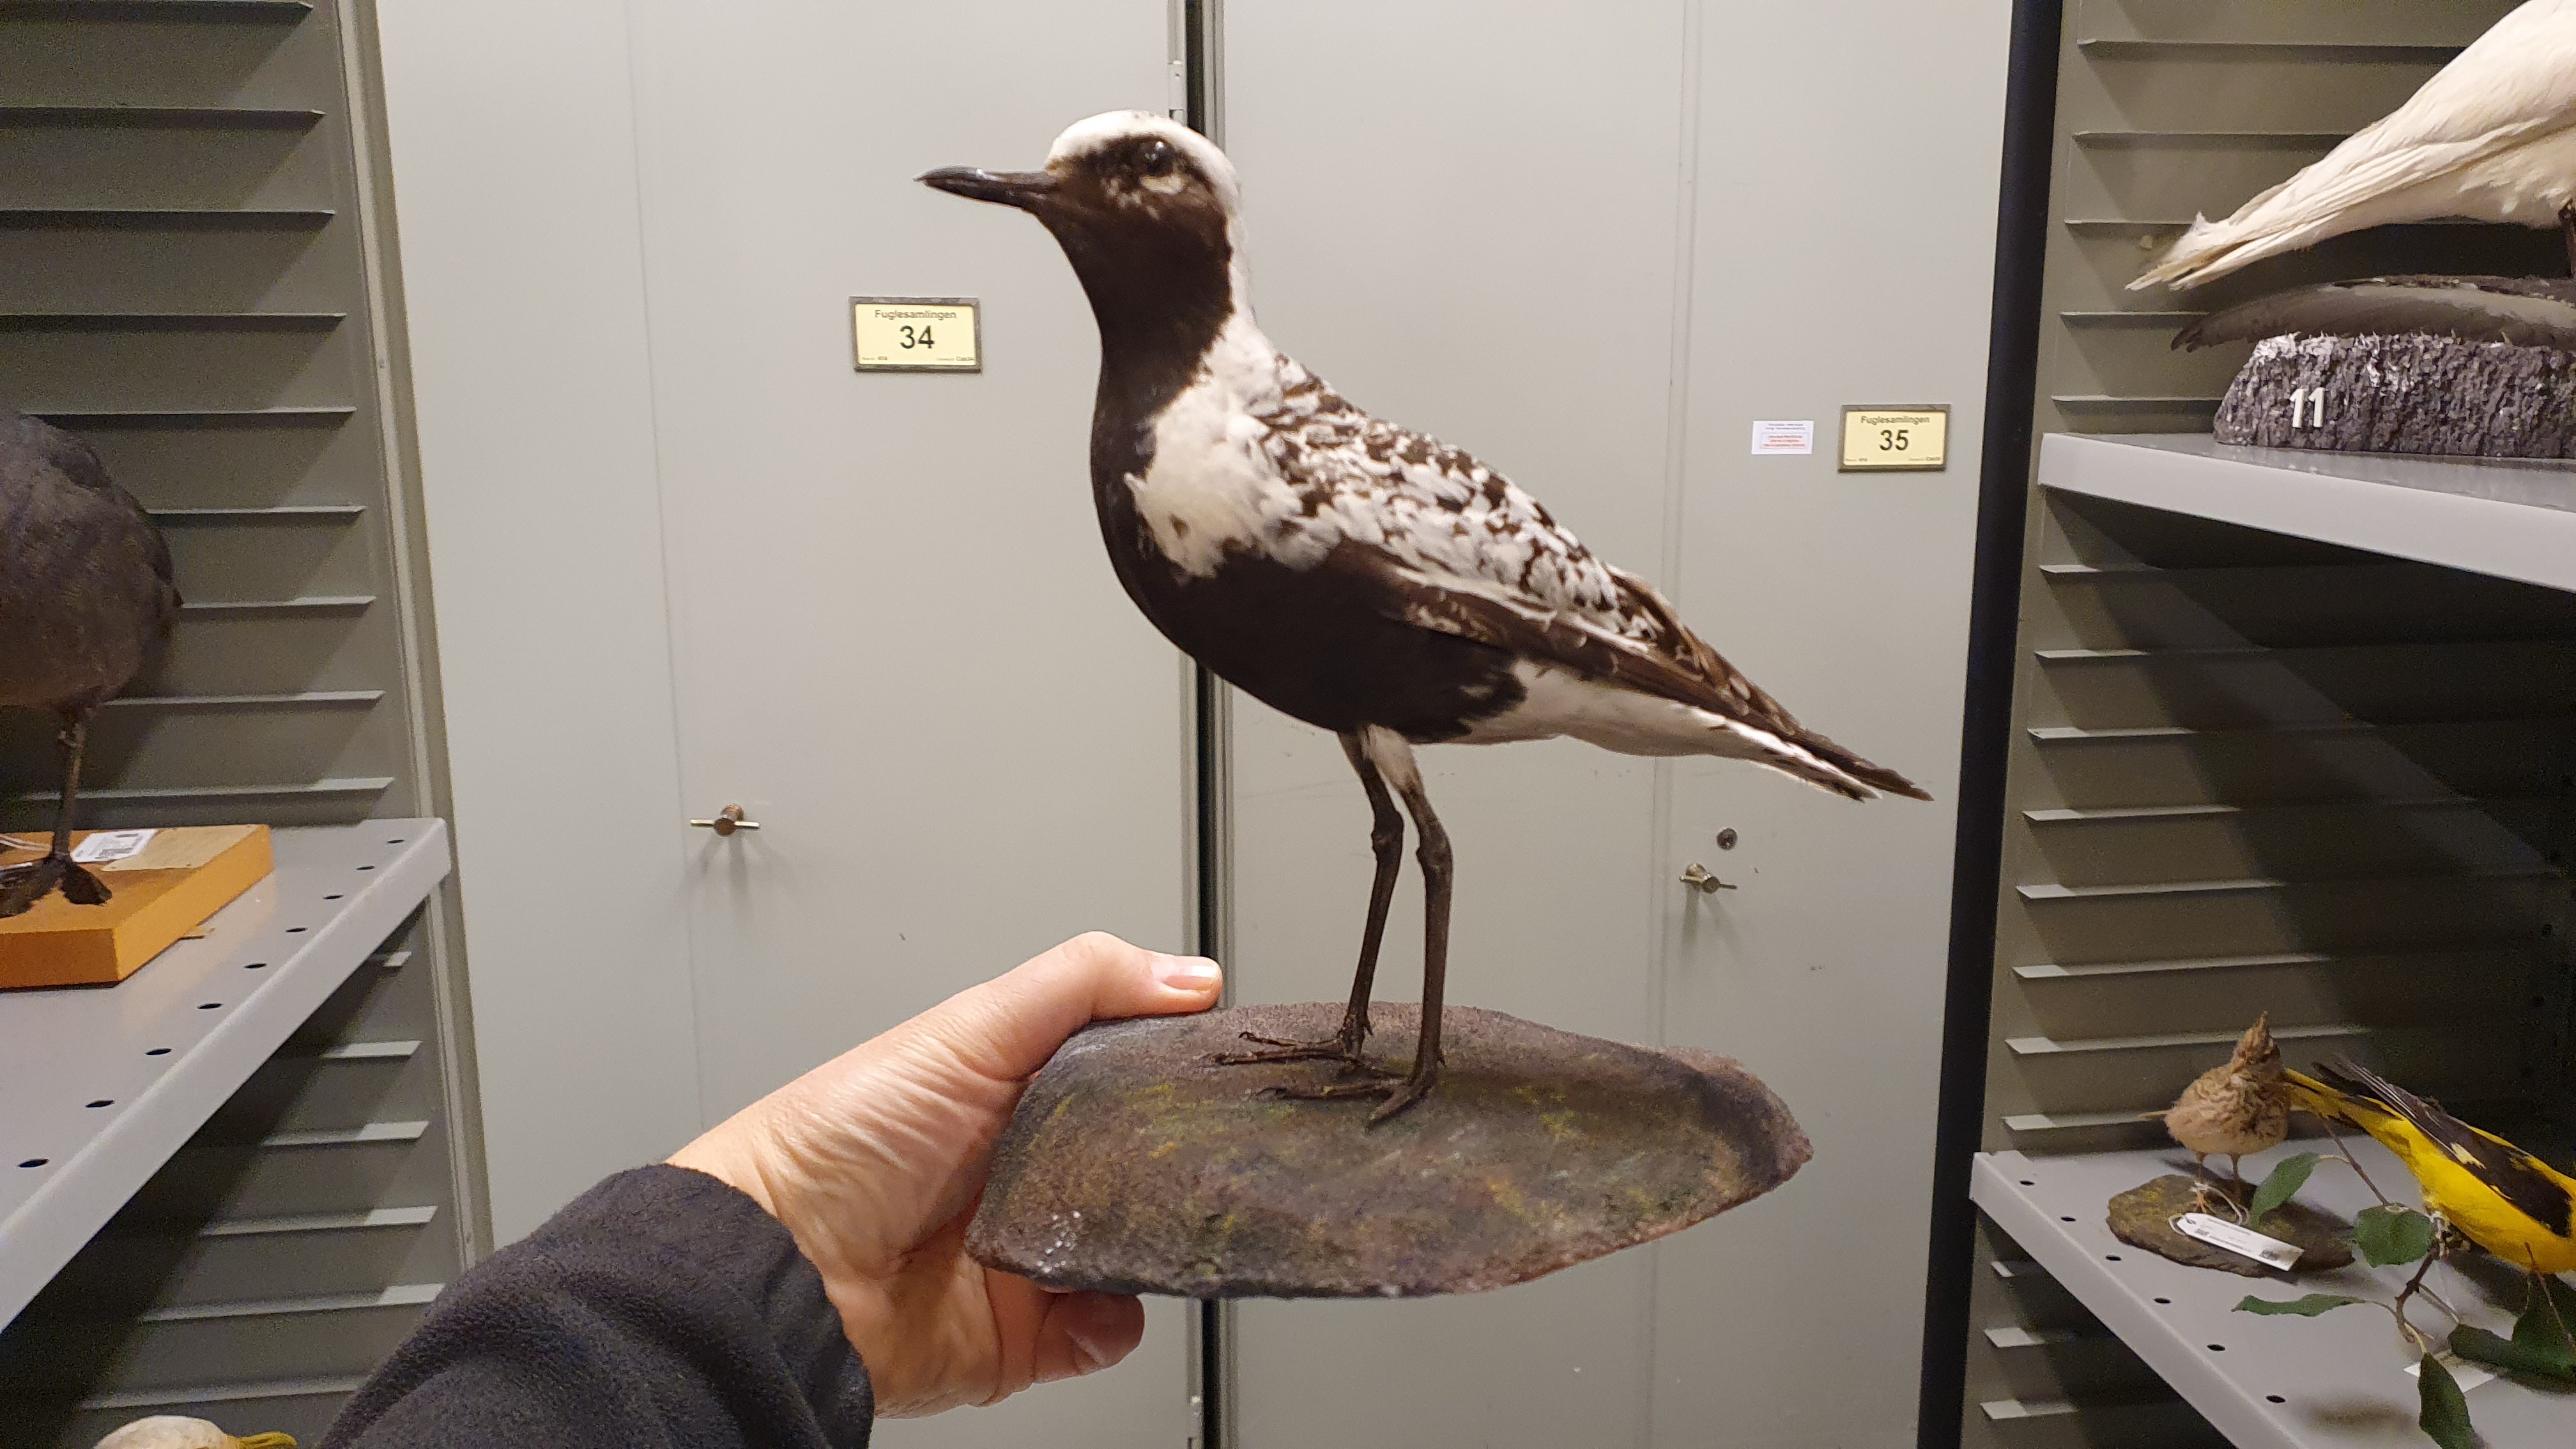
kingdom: Animalia
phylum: Chordata
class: Aves
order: Charadriiformes
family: Charadriidae
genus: Pluvialis
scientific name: Pluvialis squatarola
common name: Grey plover
